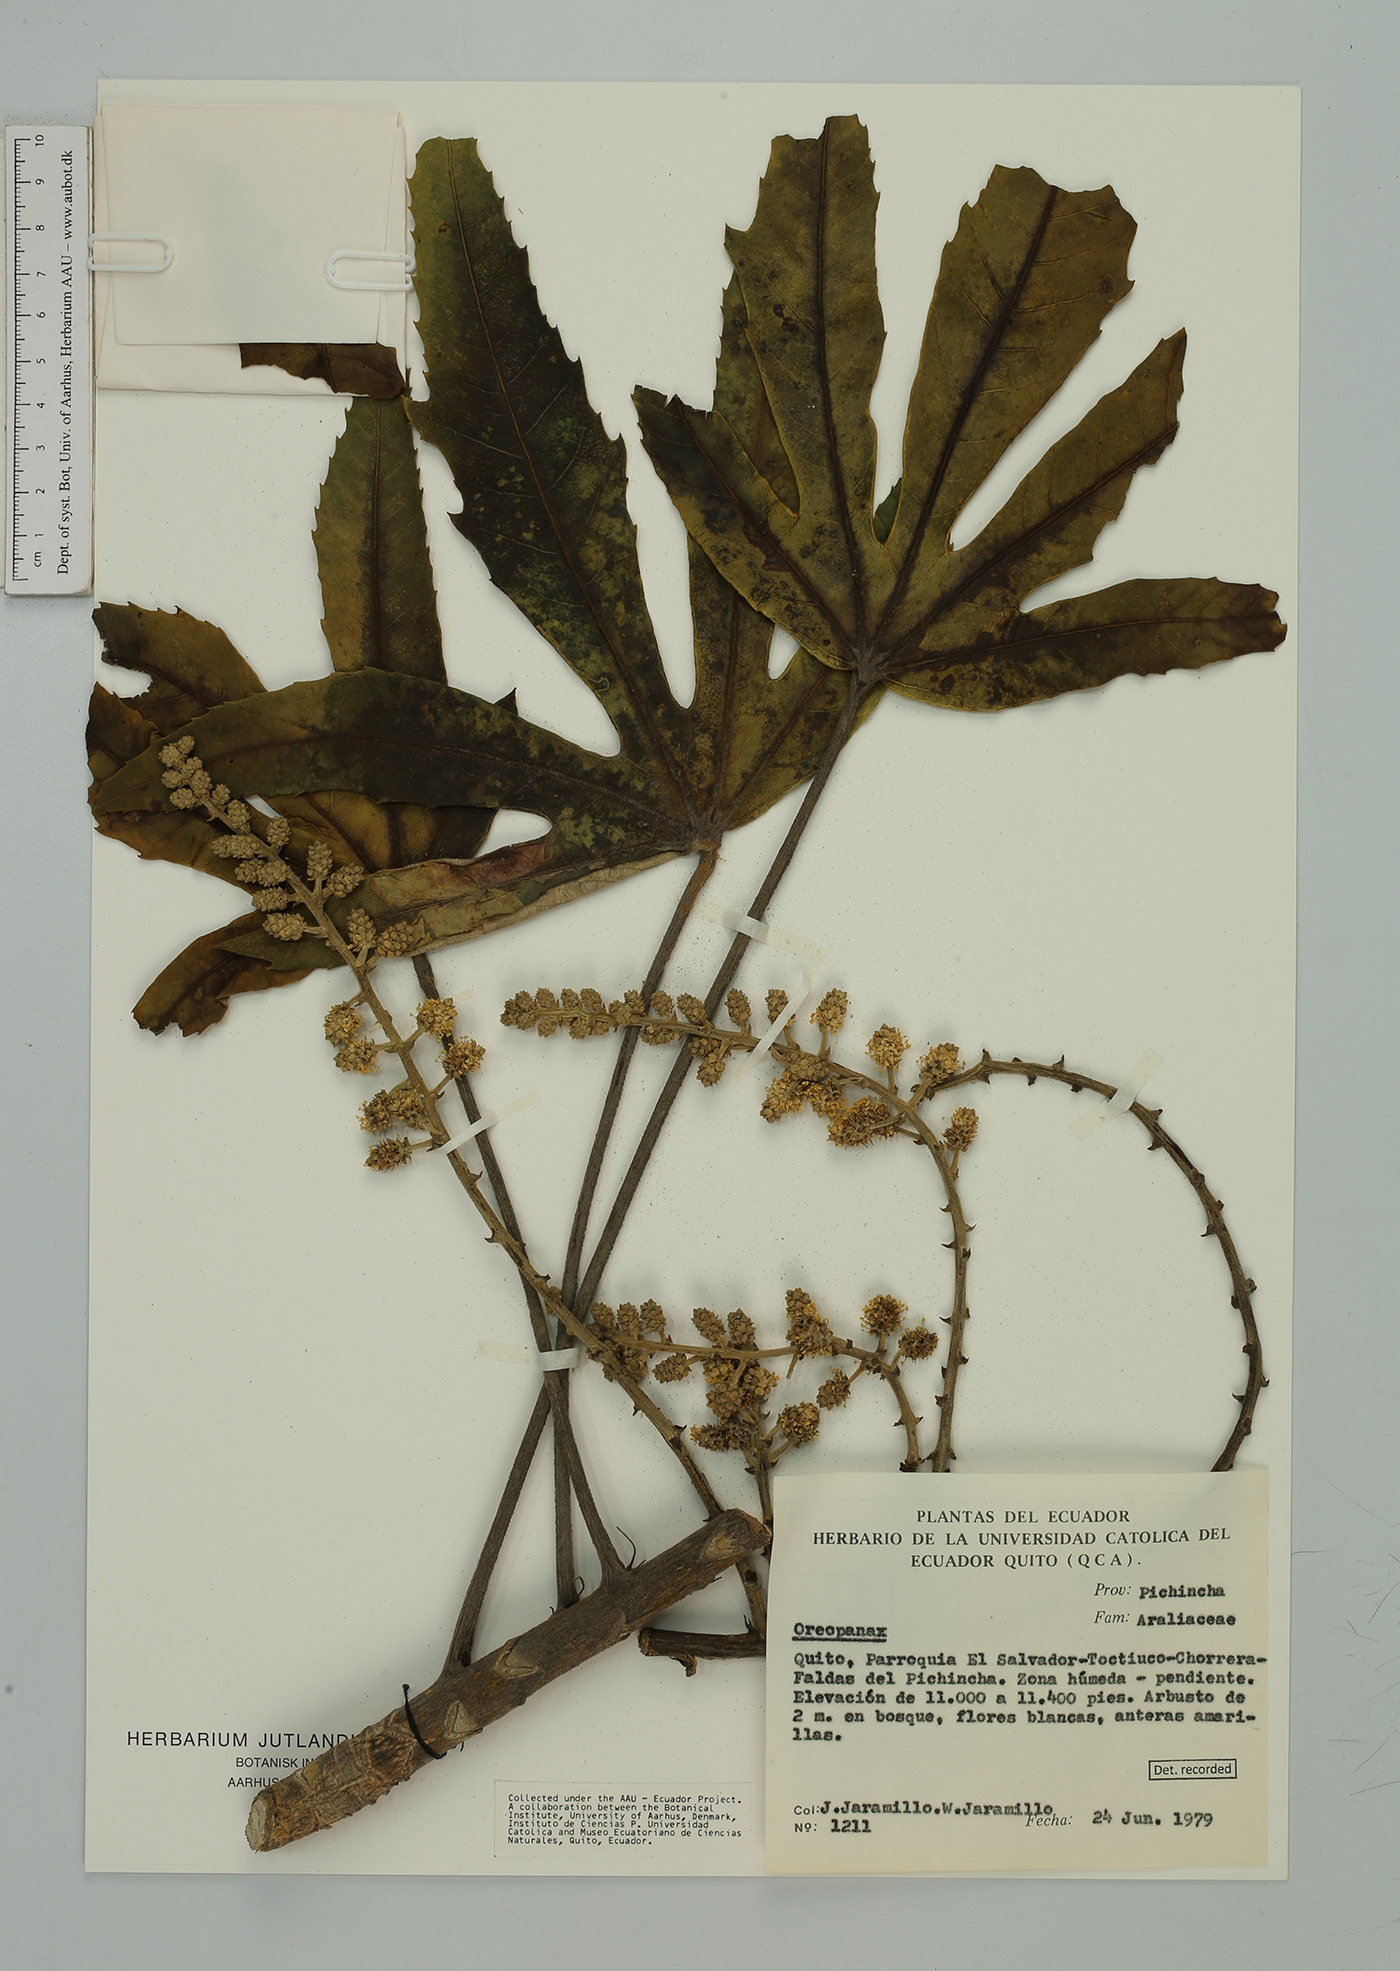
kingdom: Plantae
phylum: Tracheophyta
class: Magnoliopsida
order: Apiales
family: Araliaceae
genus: Oreopanax
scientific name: Oreopanax
